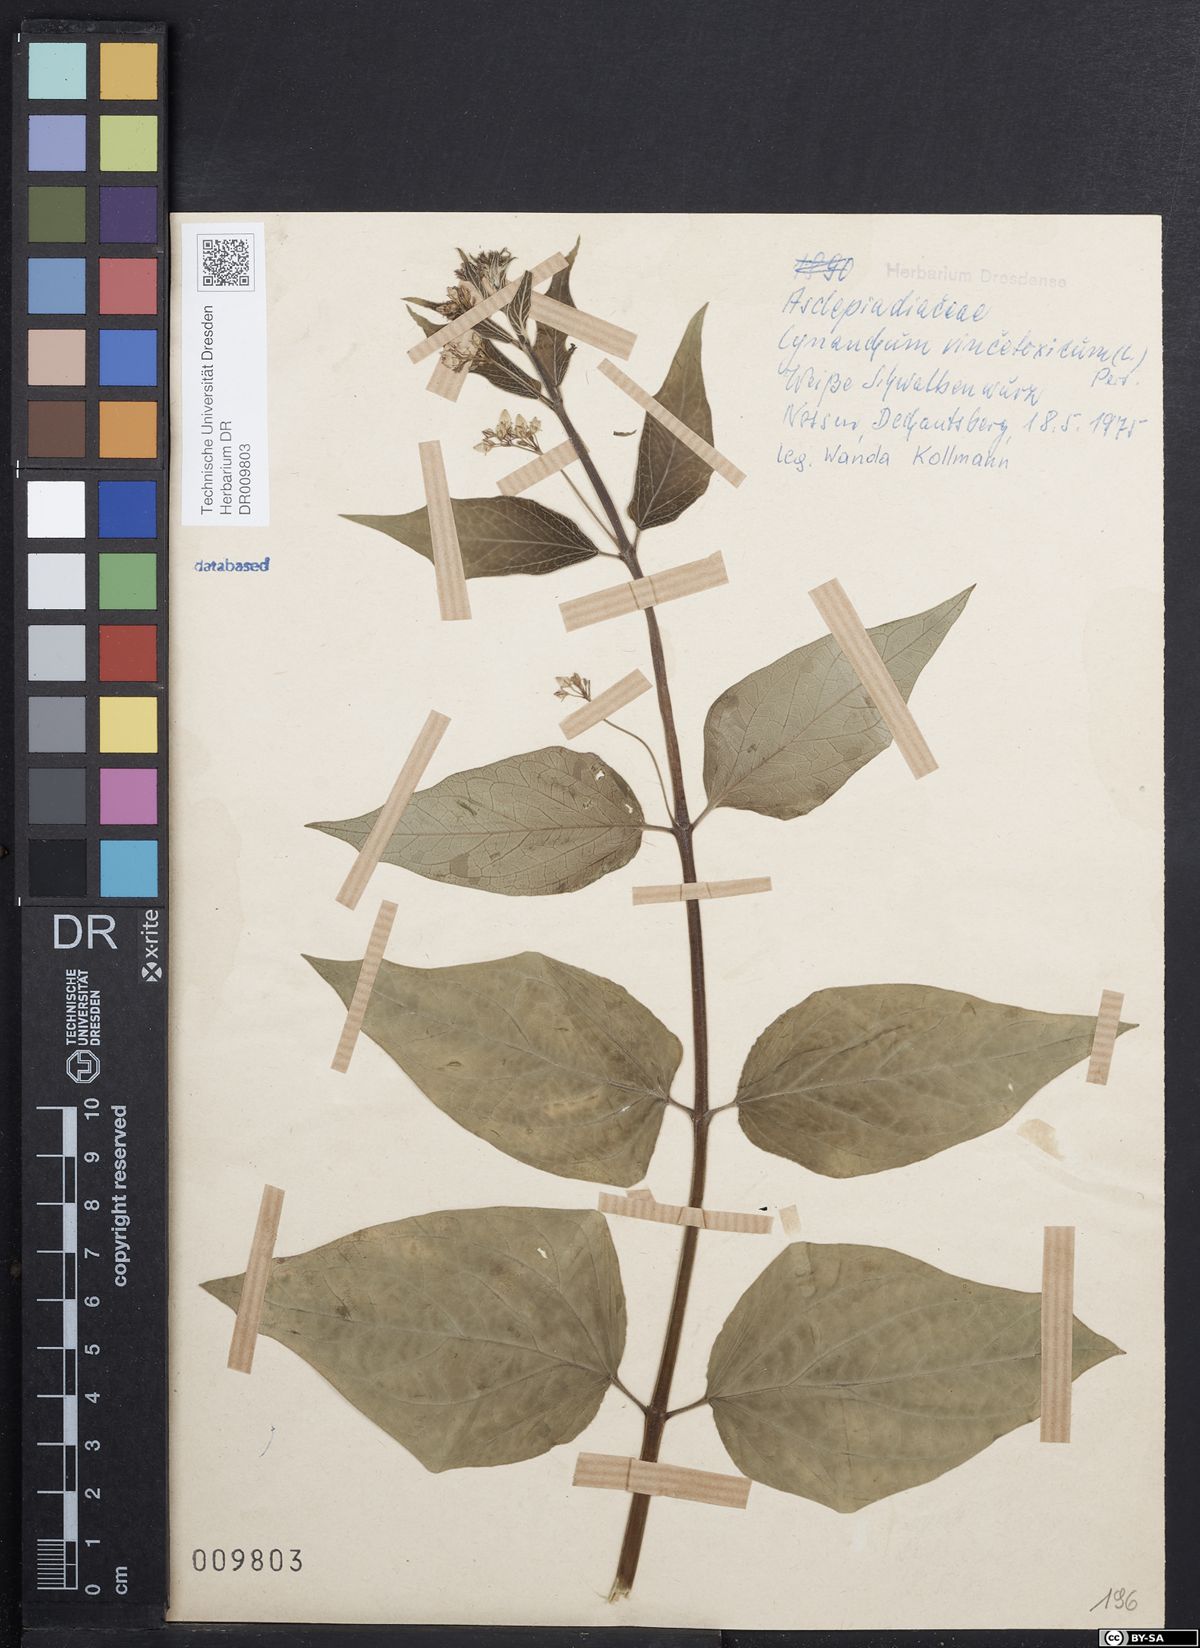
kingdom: Plantae
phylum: Tracheophyta
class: Magnoliopsida
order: Gentianales
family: Apocynaceae
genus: Vincetoxicum
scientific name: Vincetoxicum hirundinaria
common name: White swallowwort
